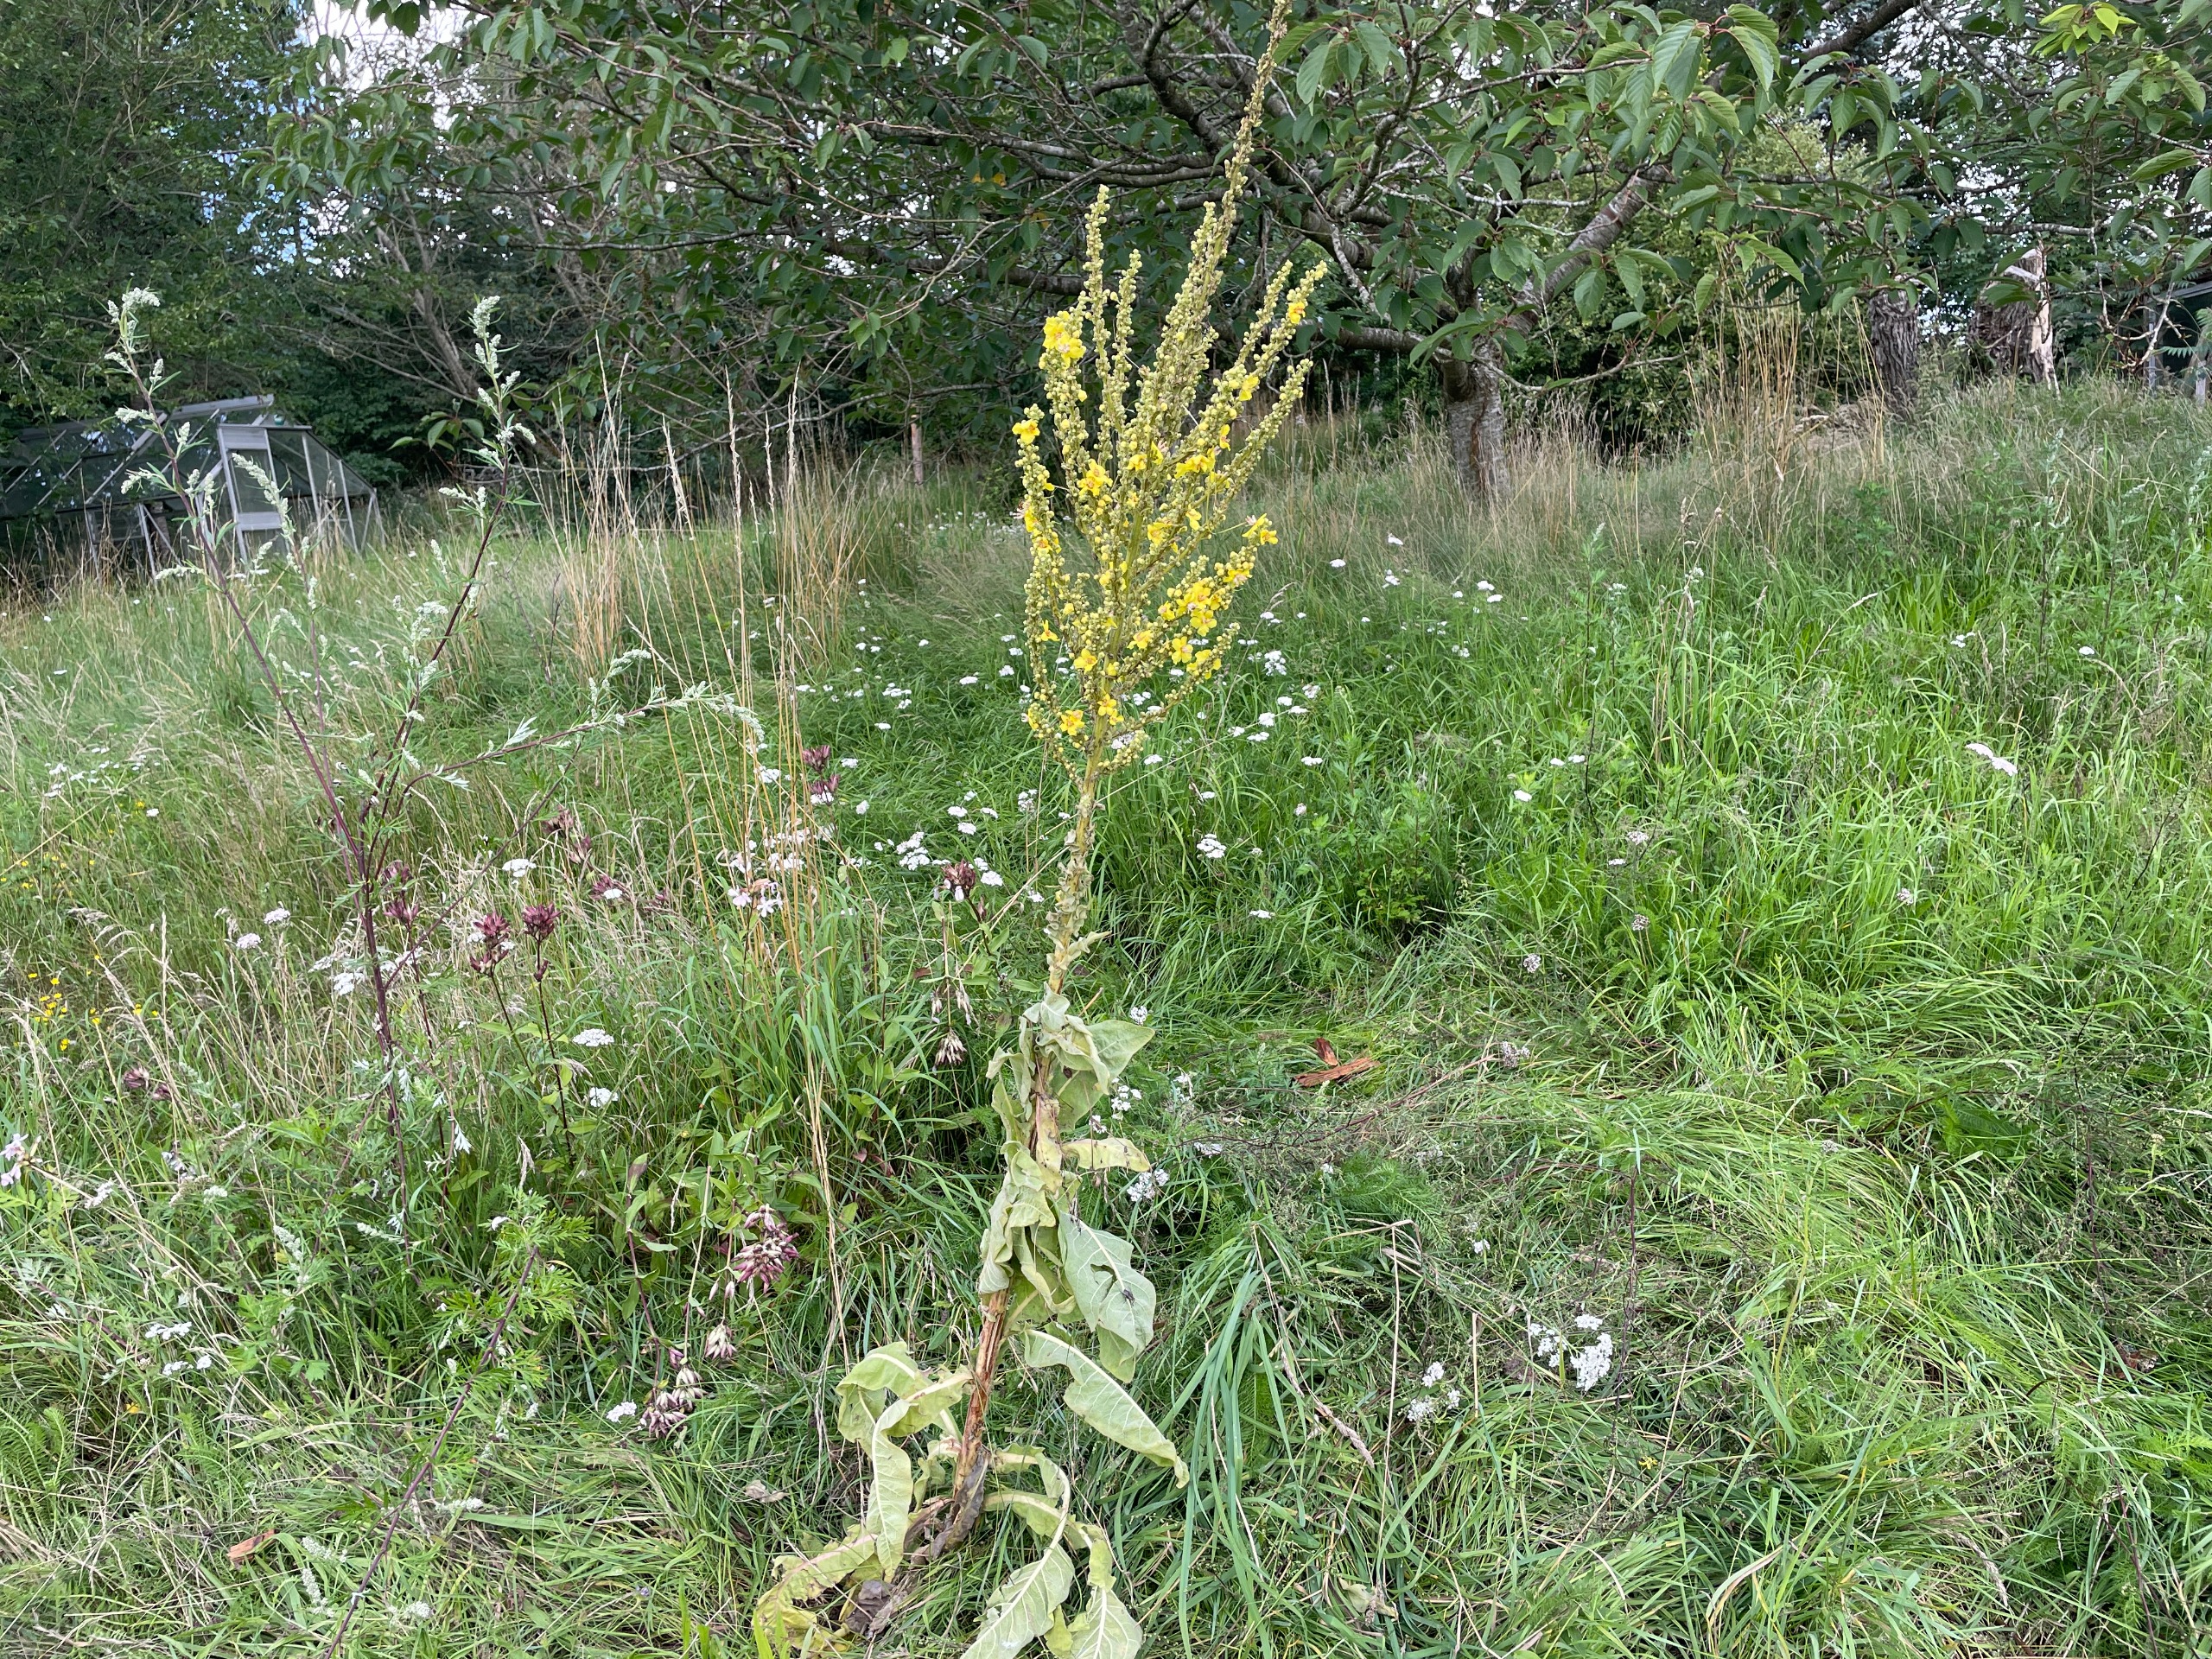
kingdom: Plantae
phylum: Tracheophyta
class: Magnoliopsida
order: Lamiales
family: Scrophulariaceae
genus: Verbascum
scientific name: Verbascum speciosum
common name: Kandelaber-kongelys
